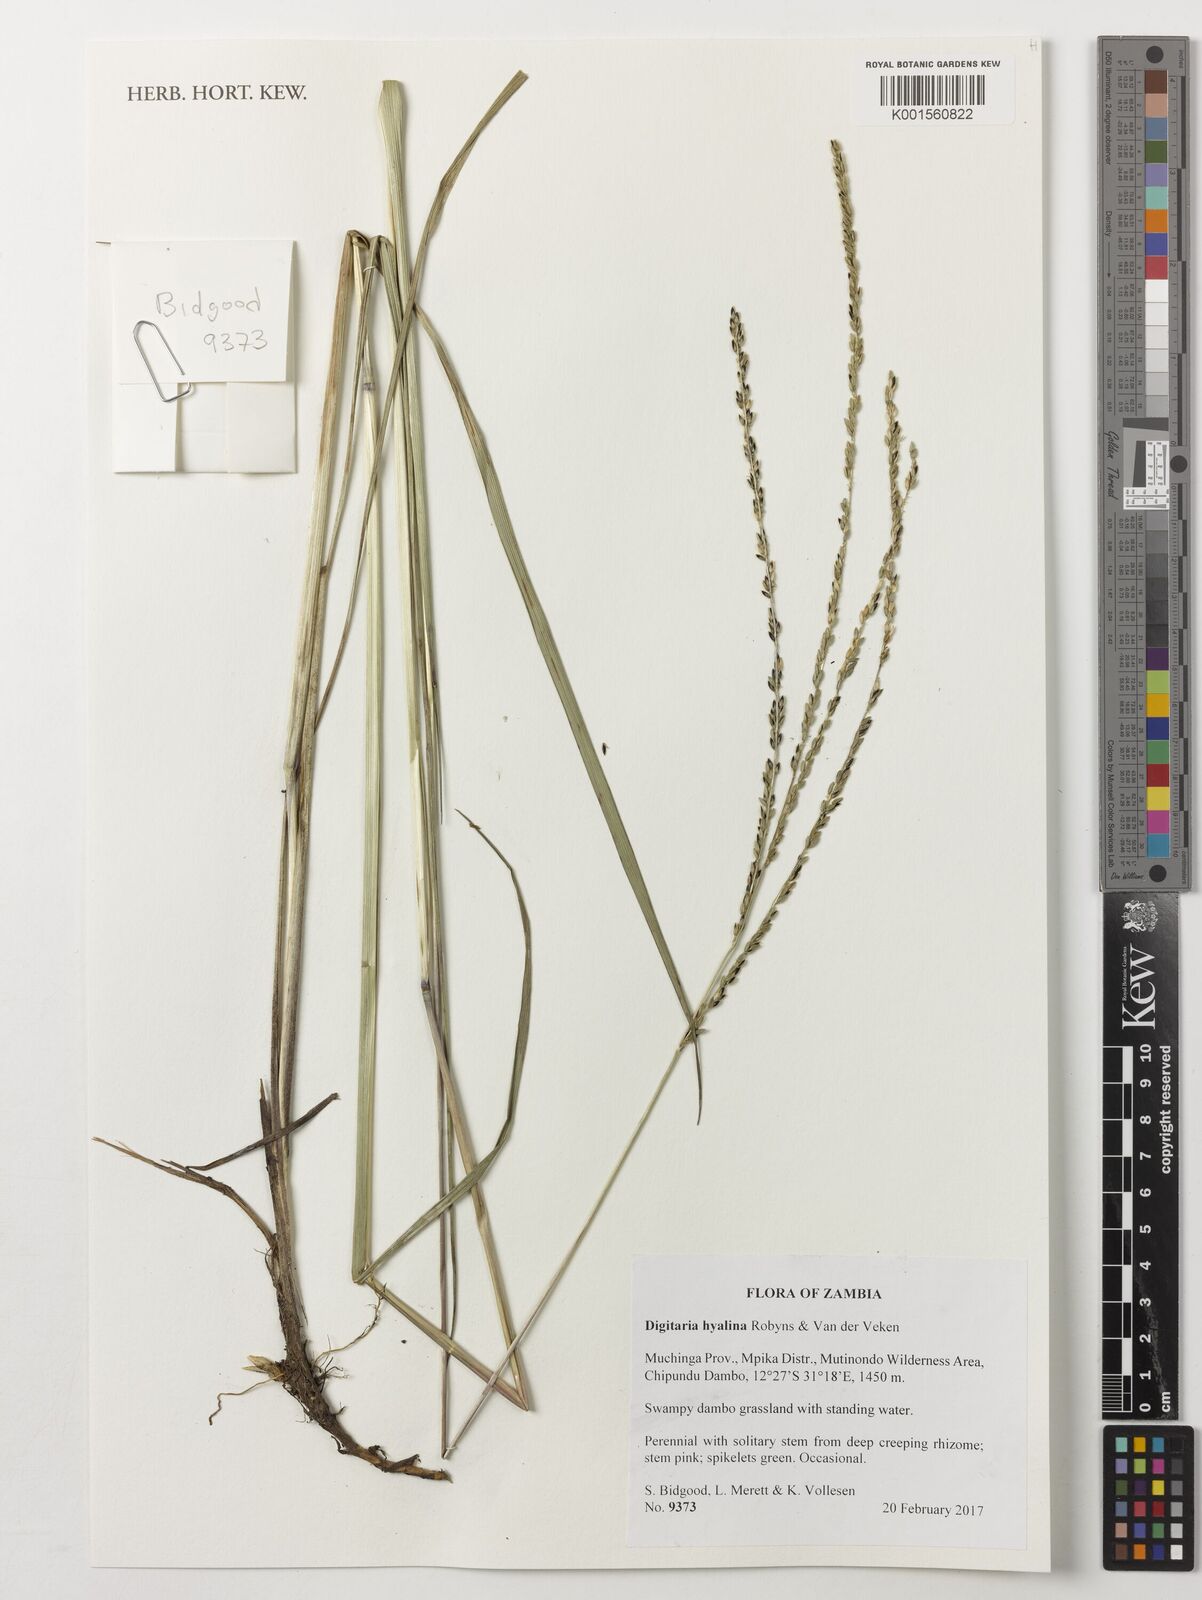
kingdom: Plantae
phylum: Tracheophyta
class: Liliopsida
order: Poales
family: Poaceae
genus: Digitaria
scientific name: Digitaria hyalina
